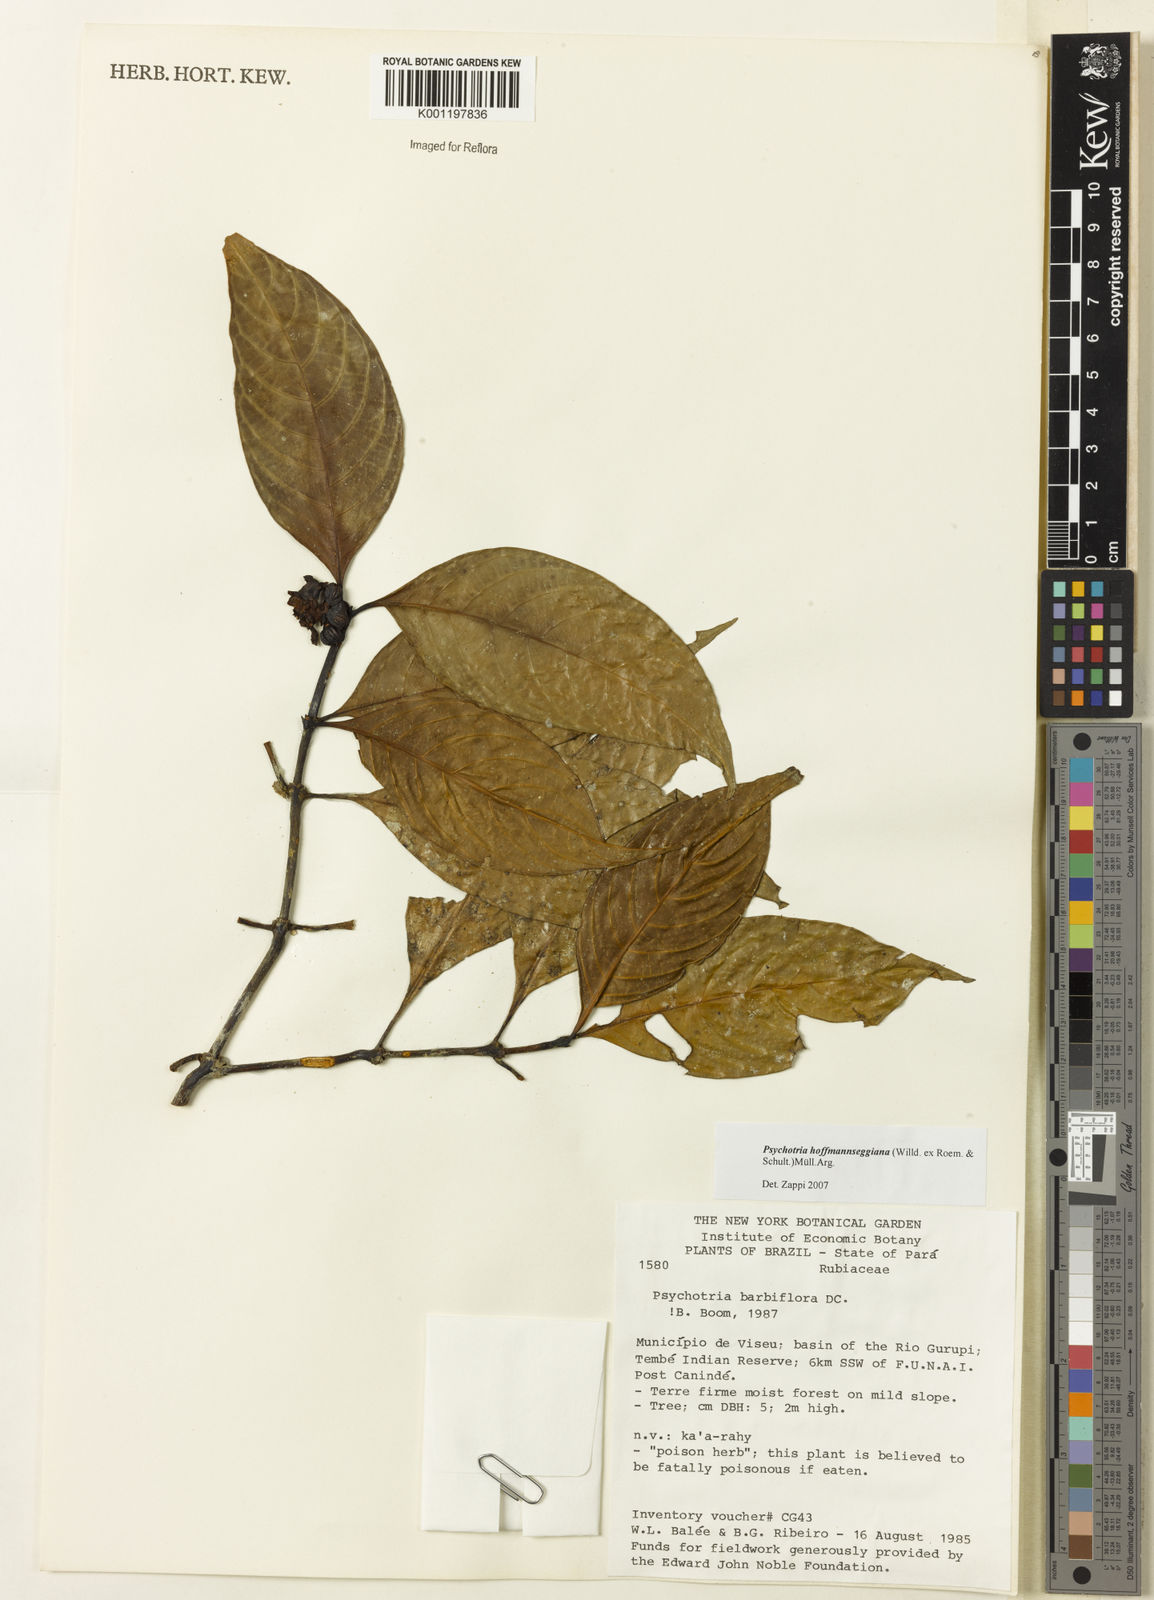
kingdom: Plantae
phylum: Tracheophyta
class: Magnoliopsida
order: Gentianales
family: Rubiaceae
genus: Psychotria
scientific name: Psychotria
